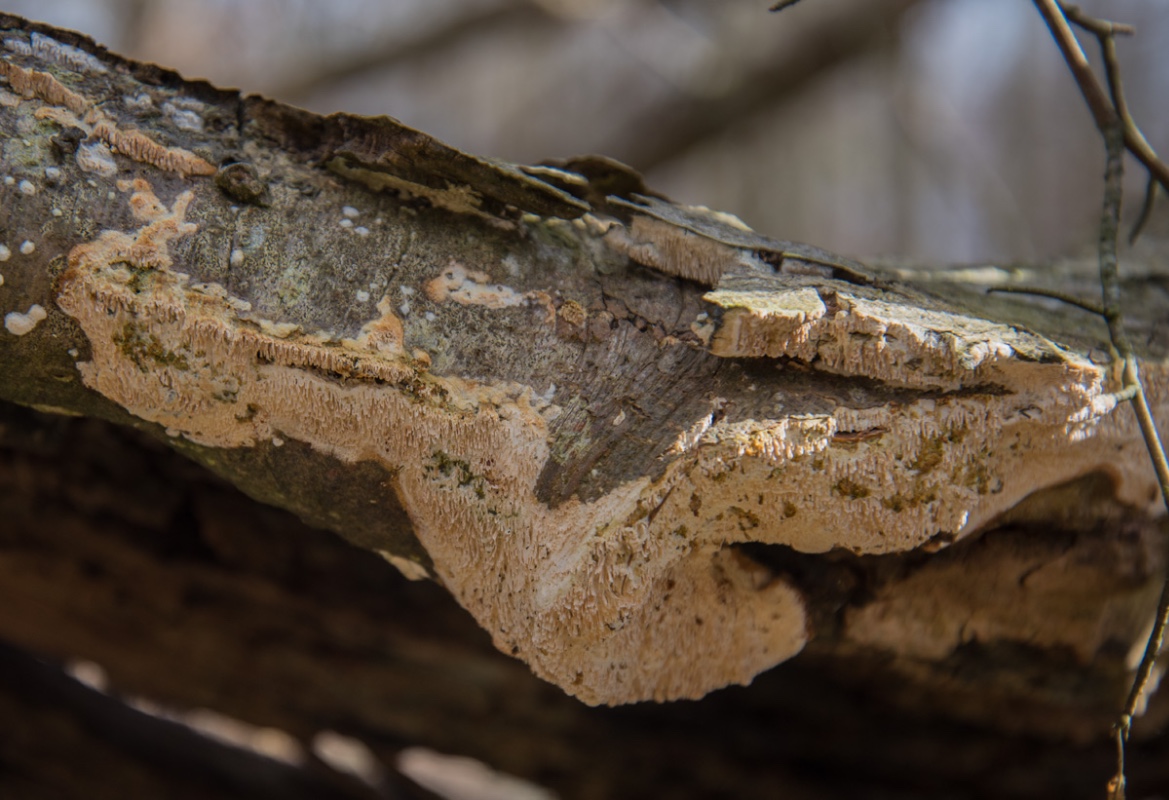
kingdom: Fungi
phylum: Basidiomycota
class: Agaricomycetes
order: Hymenochaetales
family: Schizoporaceae
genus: Schizopora
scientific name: Schizopora paradoxa
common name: hvid tandsvamp
